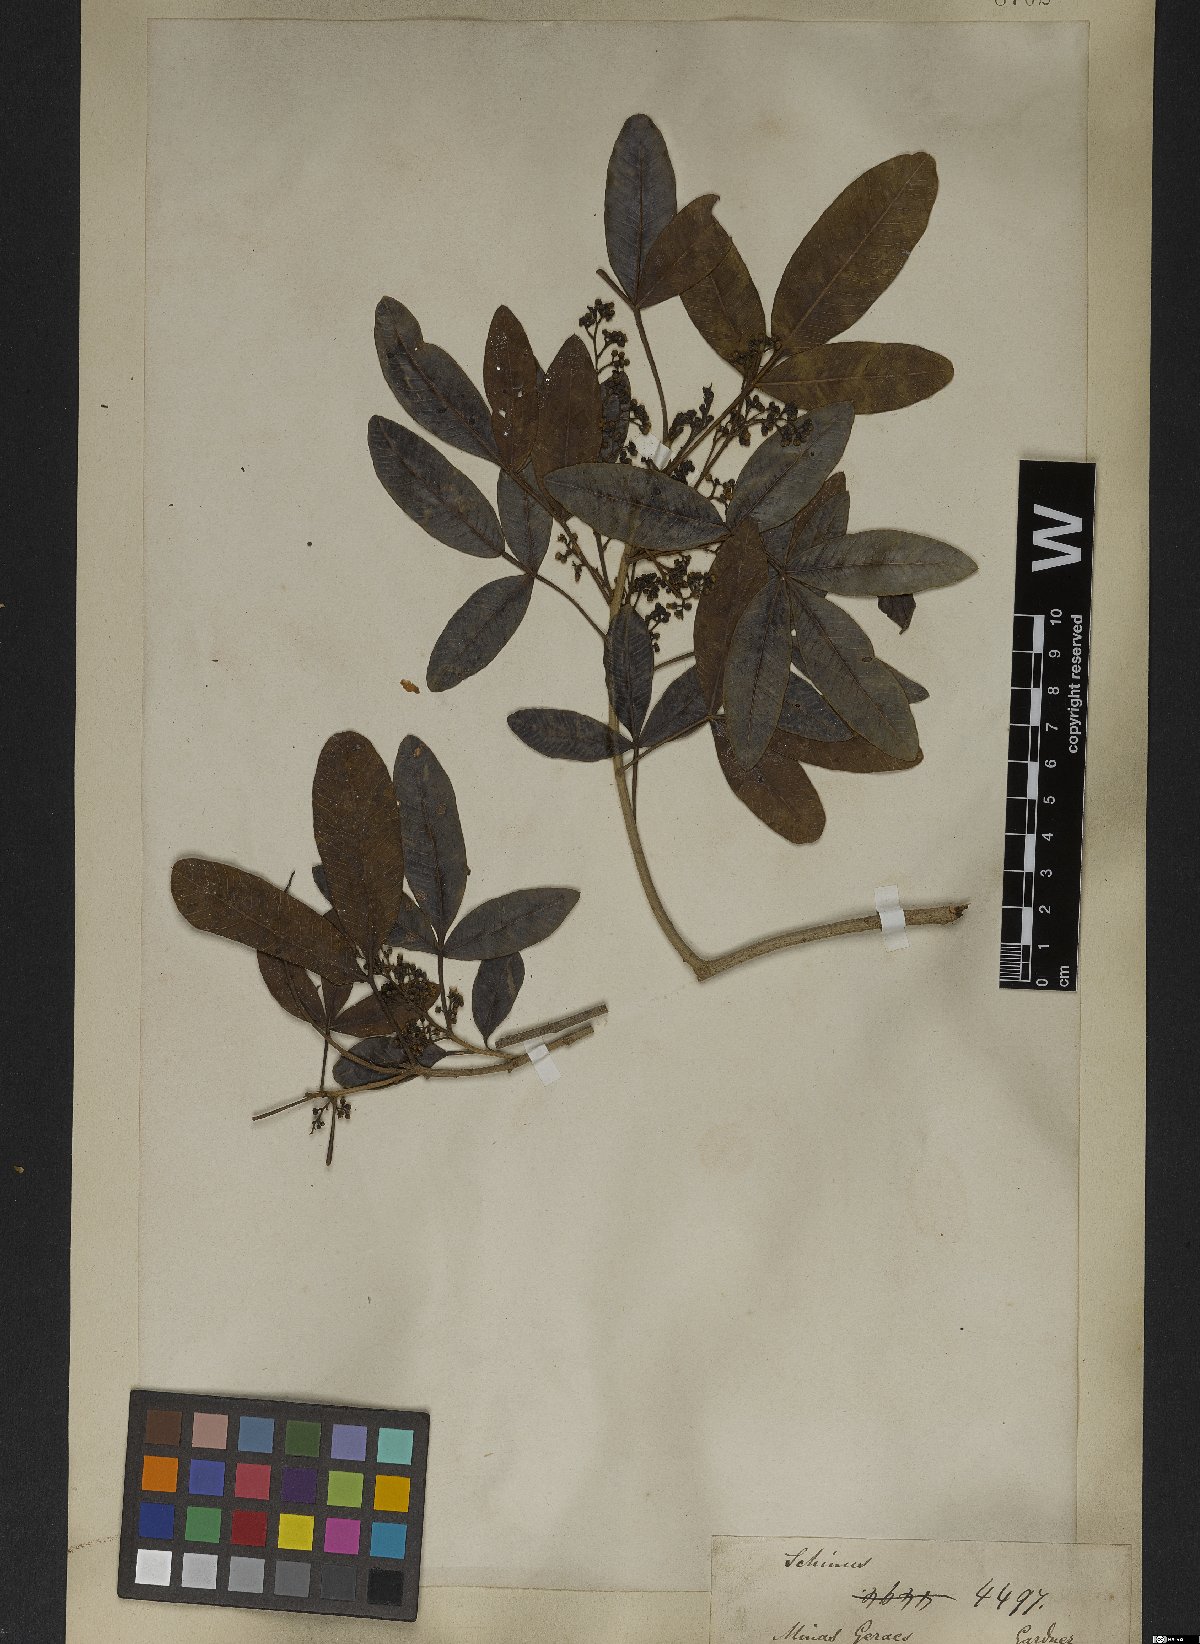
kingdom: Plantae
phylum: Tracheophyta
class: Magnoliopsida
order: Sapindales
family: Anacardiaceae
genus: Lithraea
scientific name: Lithraea molleoides
